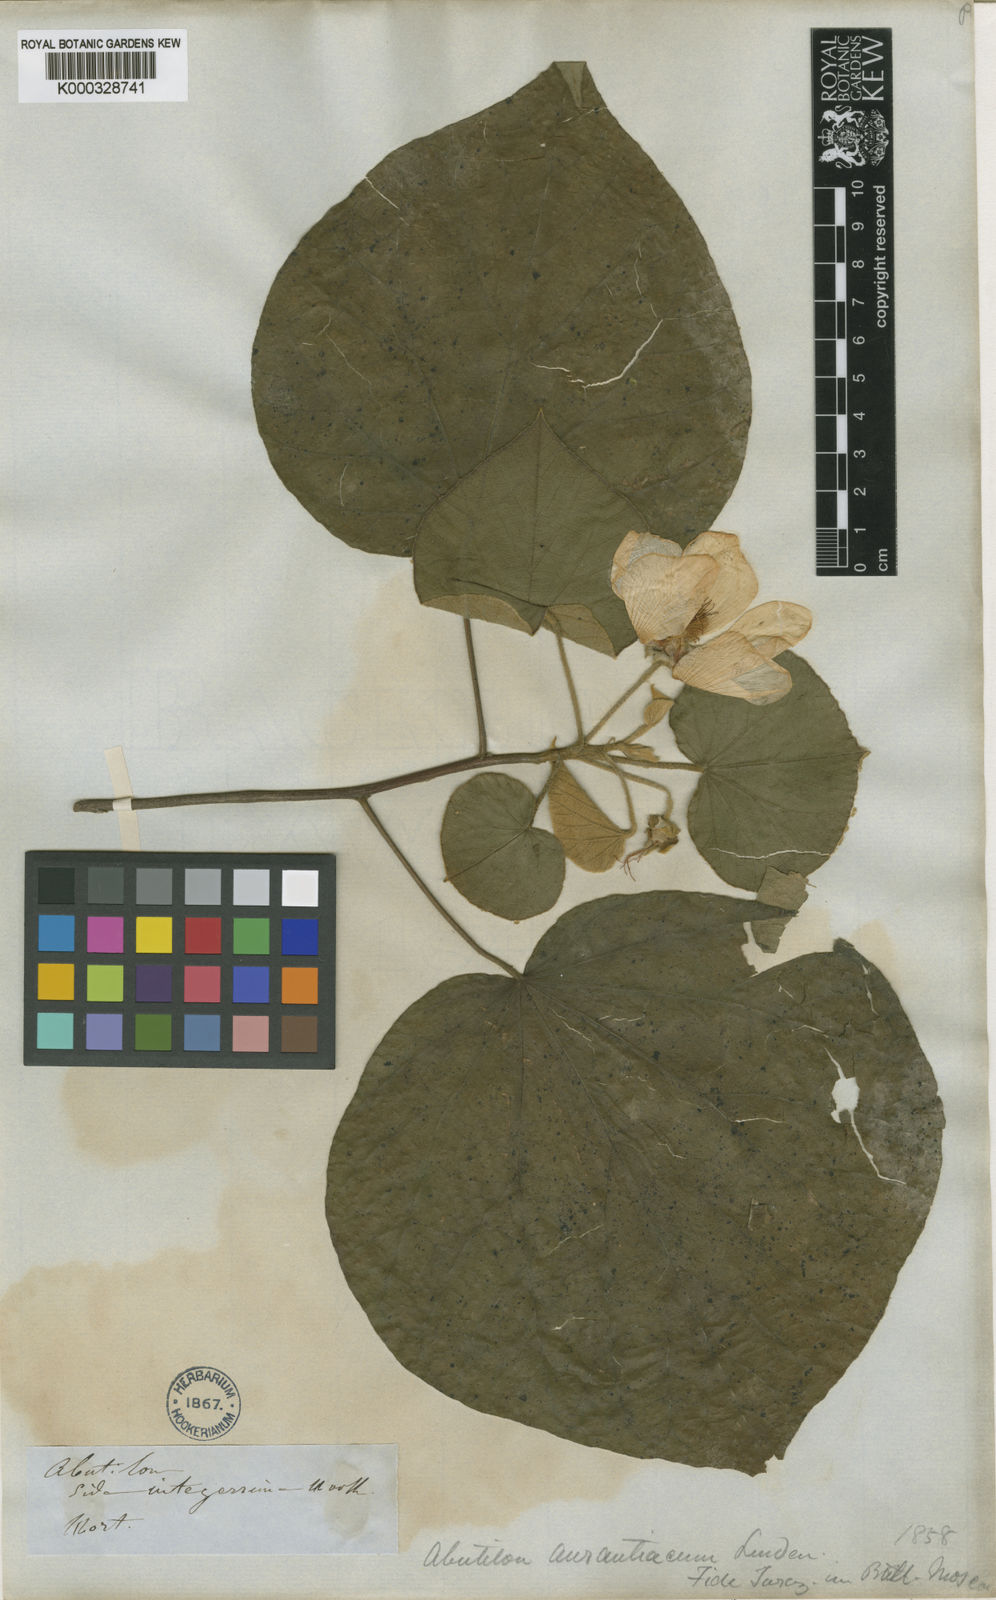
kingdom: Plantae
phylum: Tracheophyta
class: Magnoliopsida
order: Malvales
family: Malvaceae
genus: Bakeridesia
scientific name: Bakeridesia integerrima
